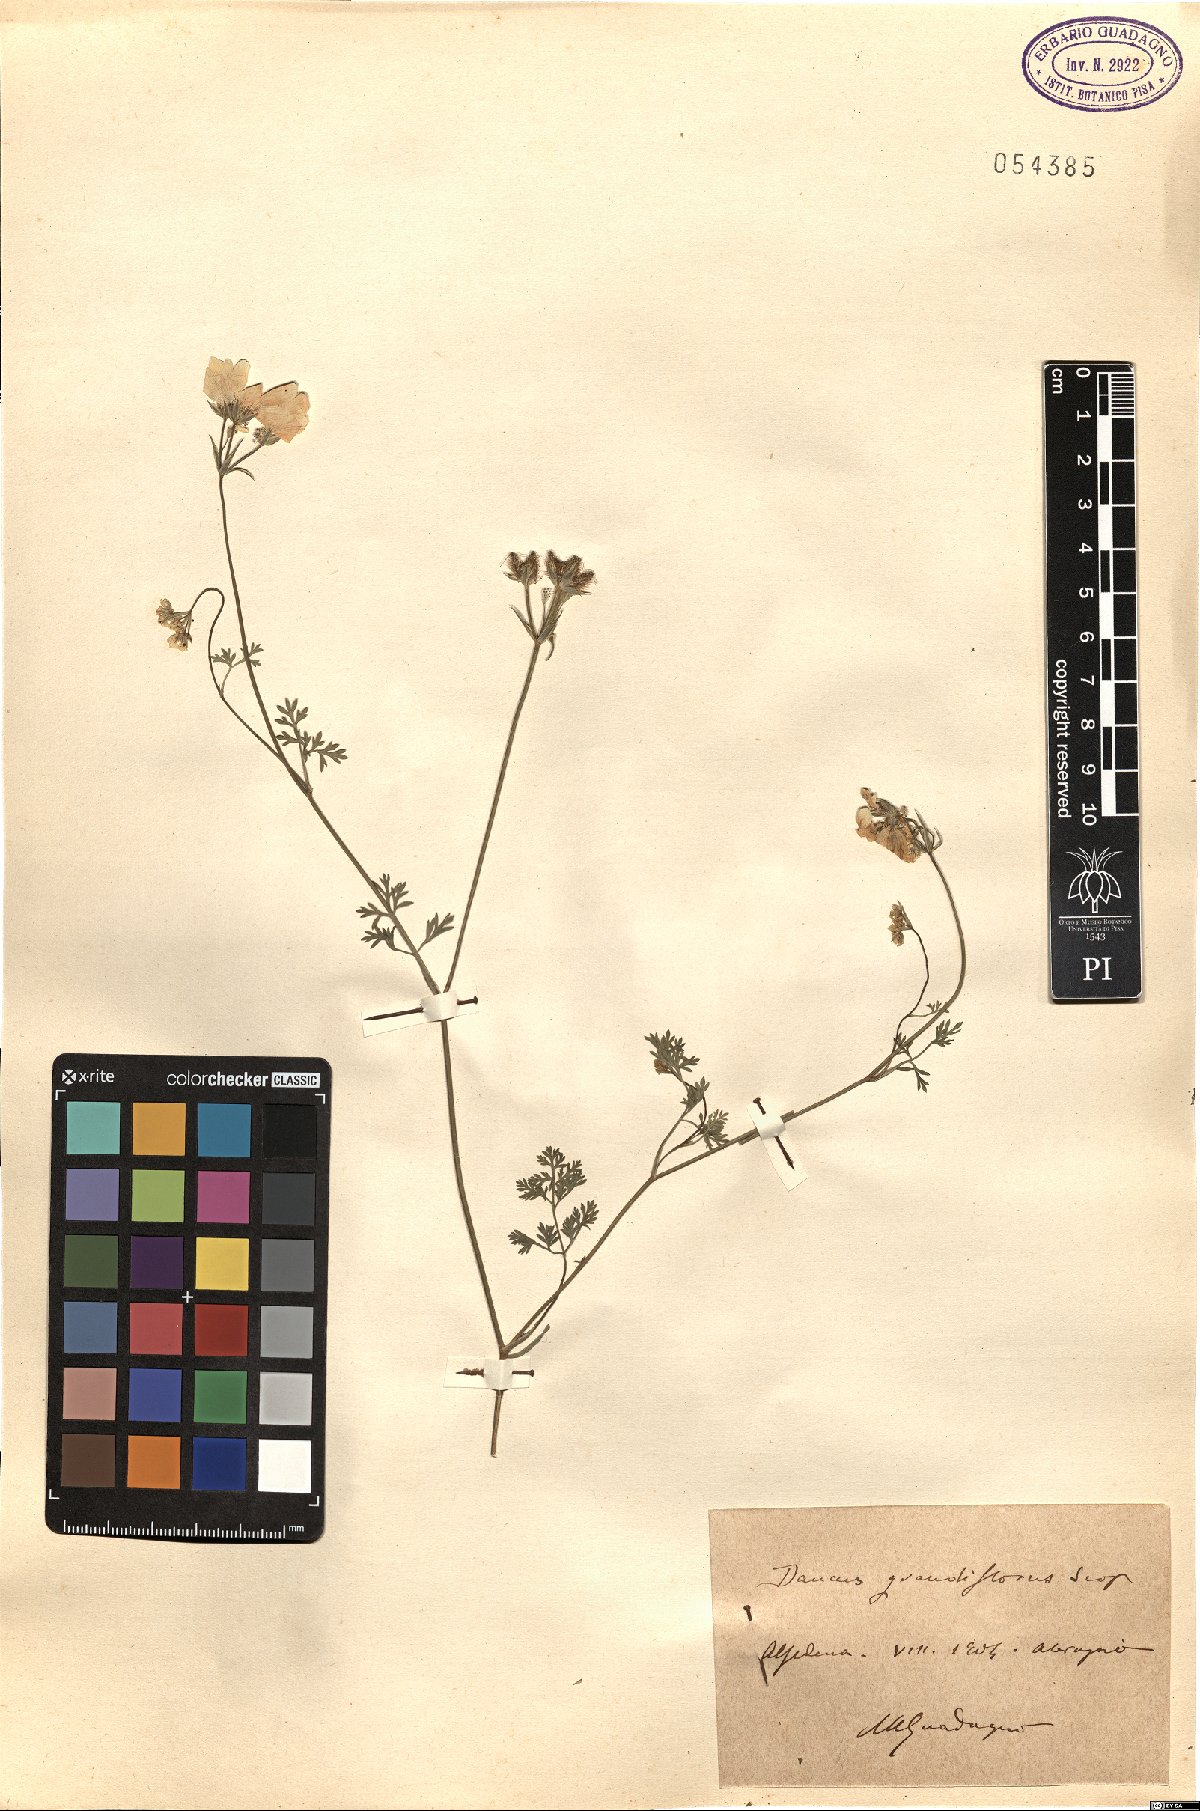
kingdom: Plantae
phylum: Tracheophyta
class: Magnoliopsida
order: Apiales
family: Apiaceae
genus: Orlaya
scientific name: Orlaya grandiflora
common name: White lace flower
